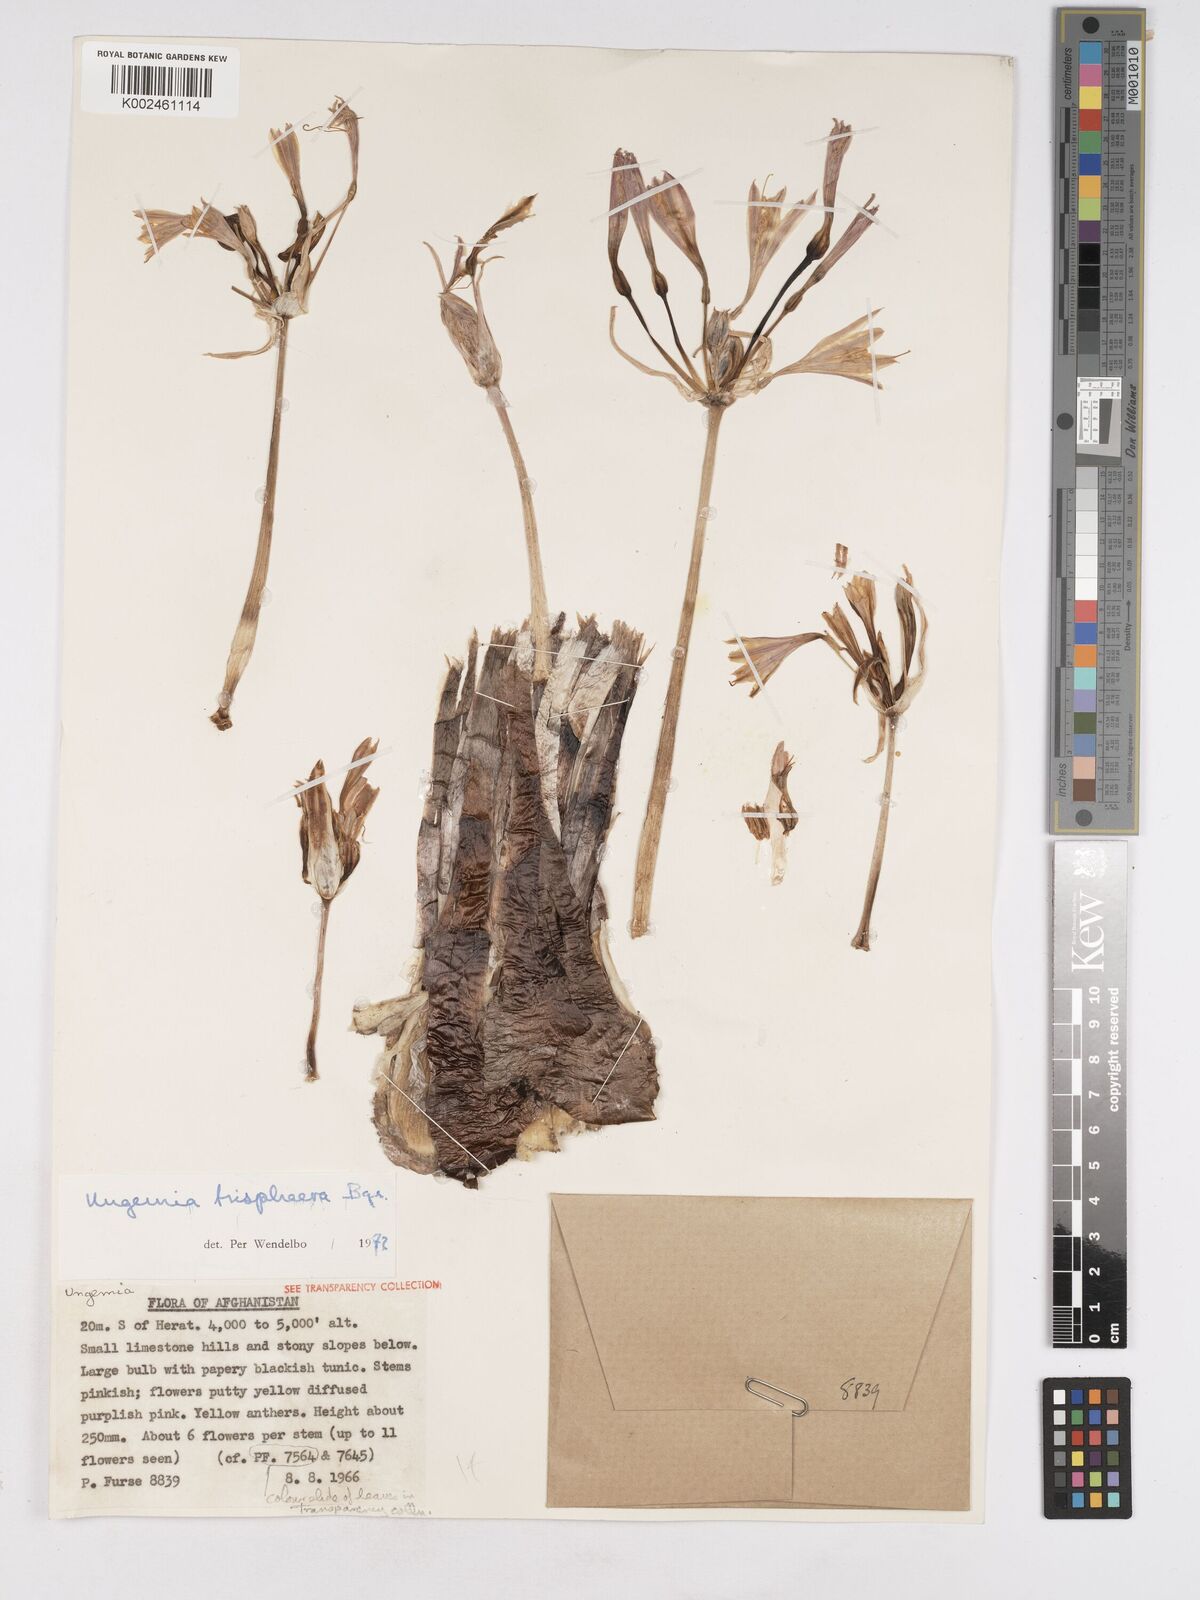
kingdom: Plantae
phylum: Tracheophyta
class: Liliopsida
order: Asparagales
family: Amaryllidaceae
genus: Ungernia
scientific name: Ungernia trisphaera
